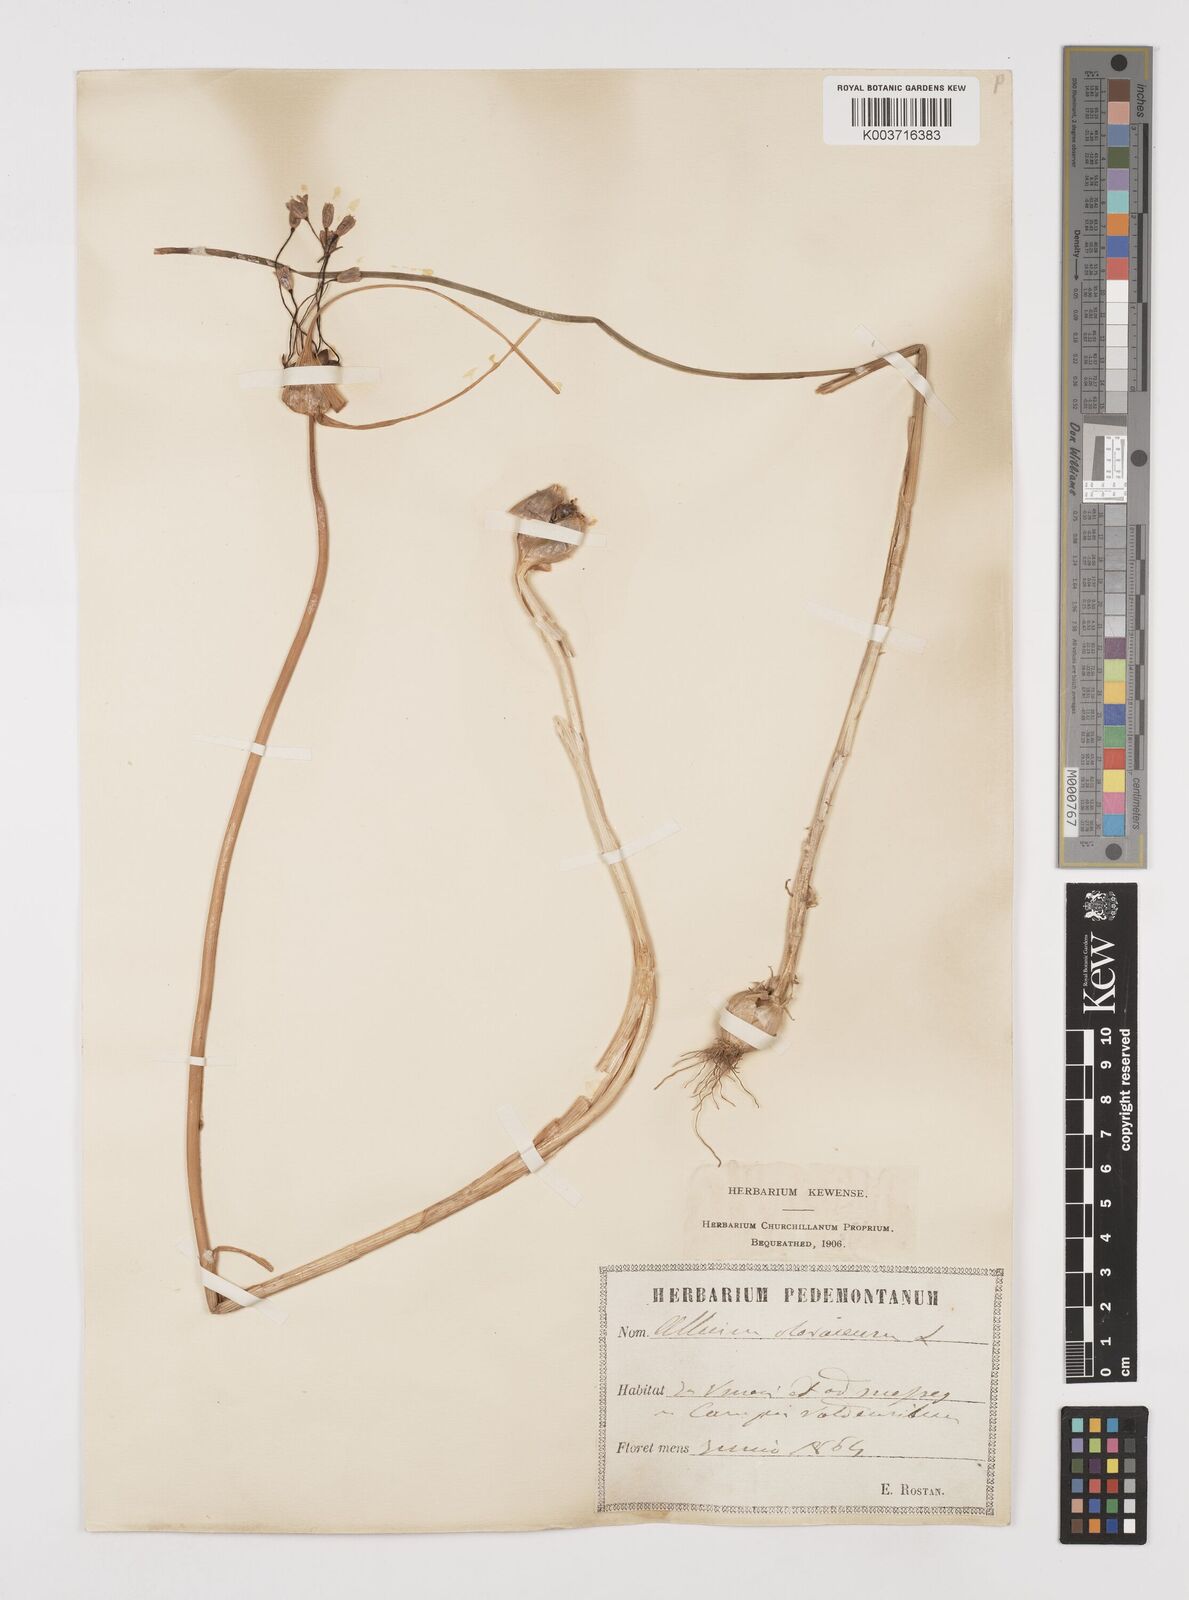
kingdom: Plantae
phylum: Tracheophyta
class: Liliopsida
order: Asparagales
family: Amaryllidaceae
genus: Allium
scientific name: Allium oleraceum
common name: Field garlic
